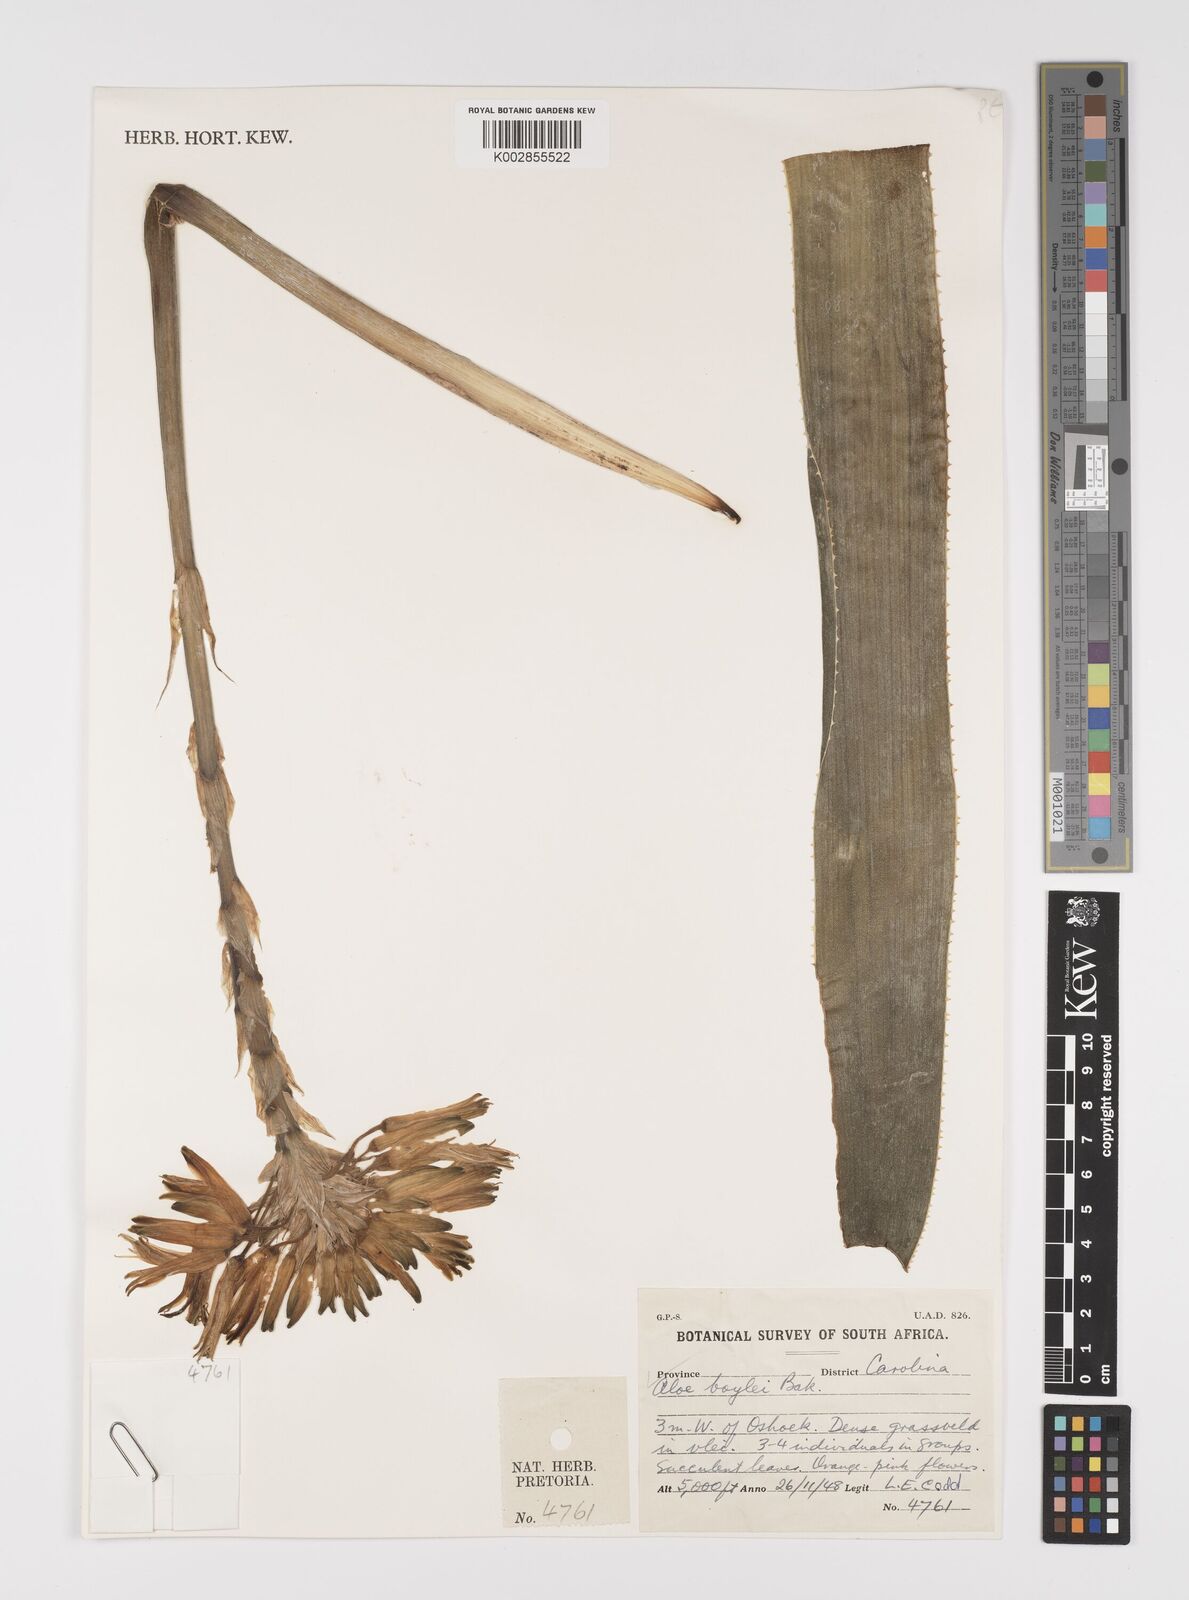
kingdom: Plantae
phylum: Tracheophyta
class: Liliopsida
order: Asparagales
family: Asphodelaceae
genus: Aloe
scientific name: Aloe boylei
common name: Broad-leaved grass aloe
